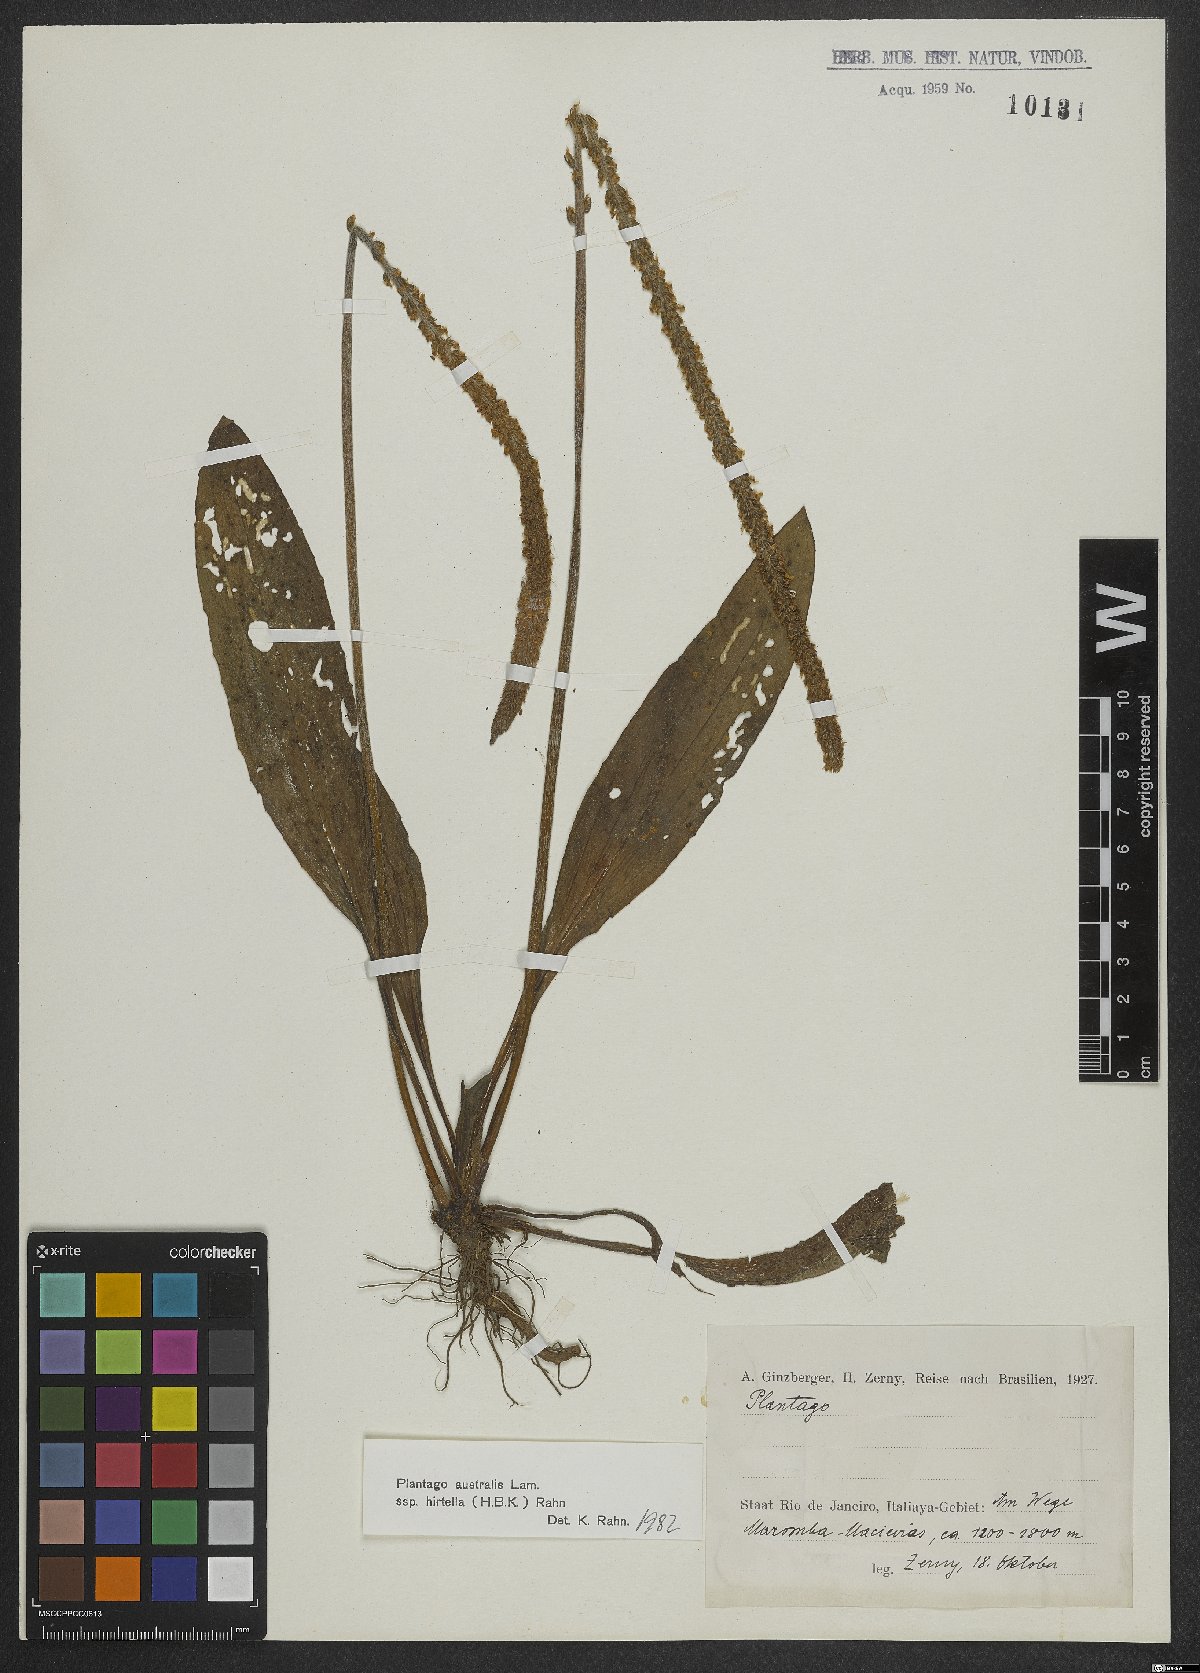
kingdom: Plantae
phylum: Tracheophyta
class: Magnoliopsida
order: Lamiales
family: Plantaginaceae
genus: Plantago
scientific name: Plantago australis
